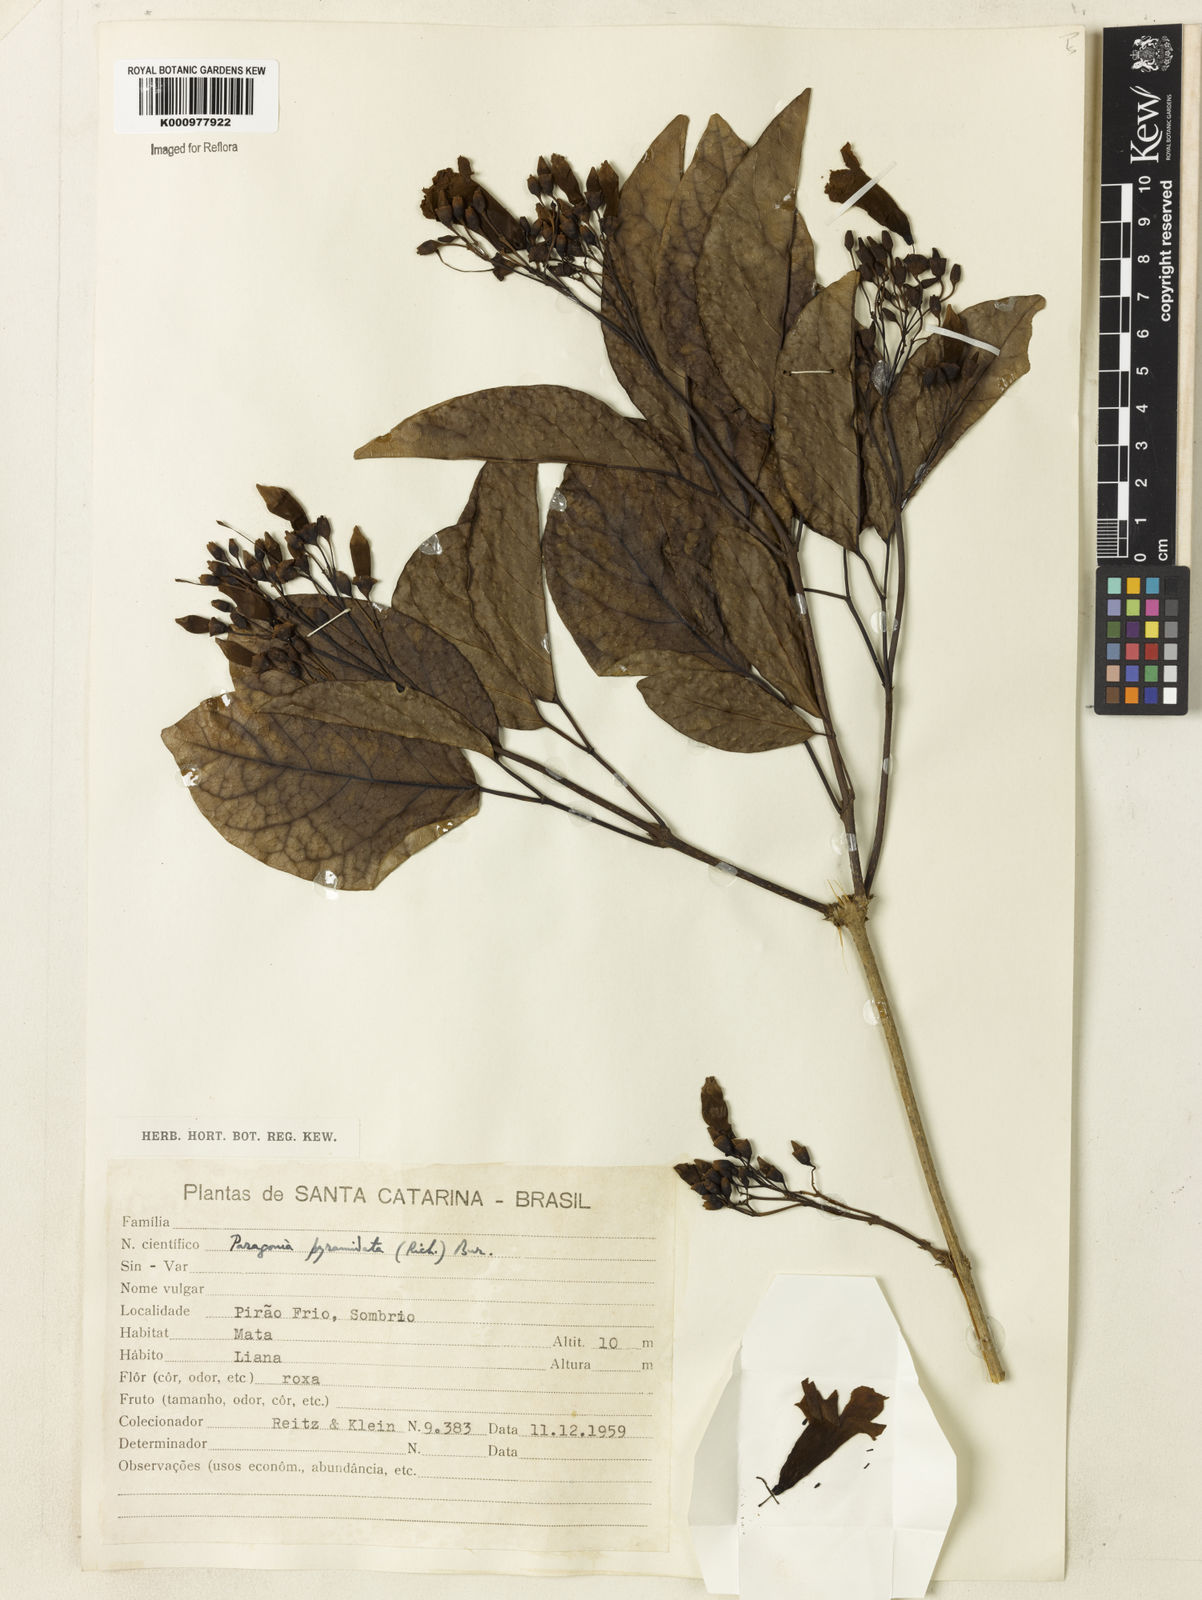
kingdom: Plantae
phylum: Tracheophyta
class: Magnoliopsida
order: Lamiales
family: Bignoniaceae
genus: Tanaecium
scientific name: Tanaecium pyramidatum
